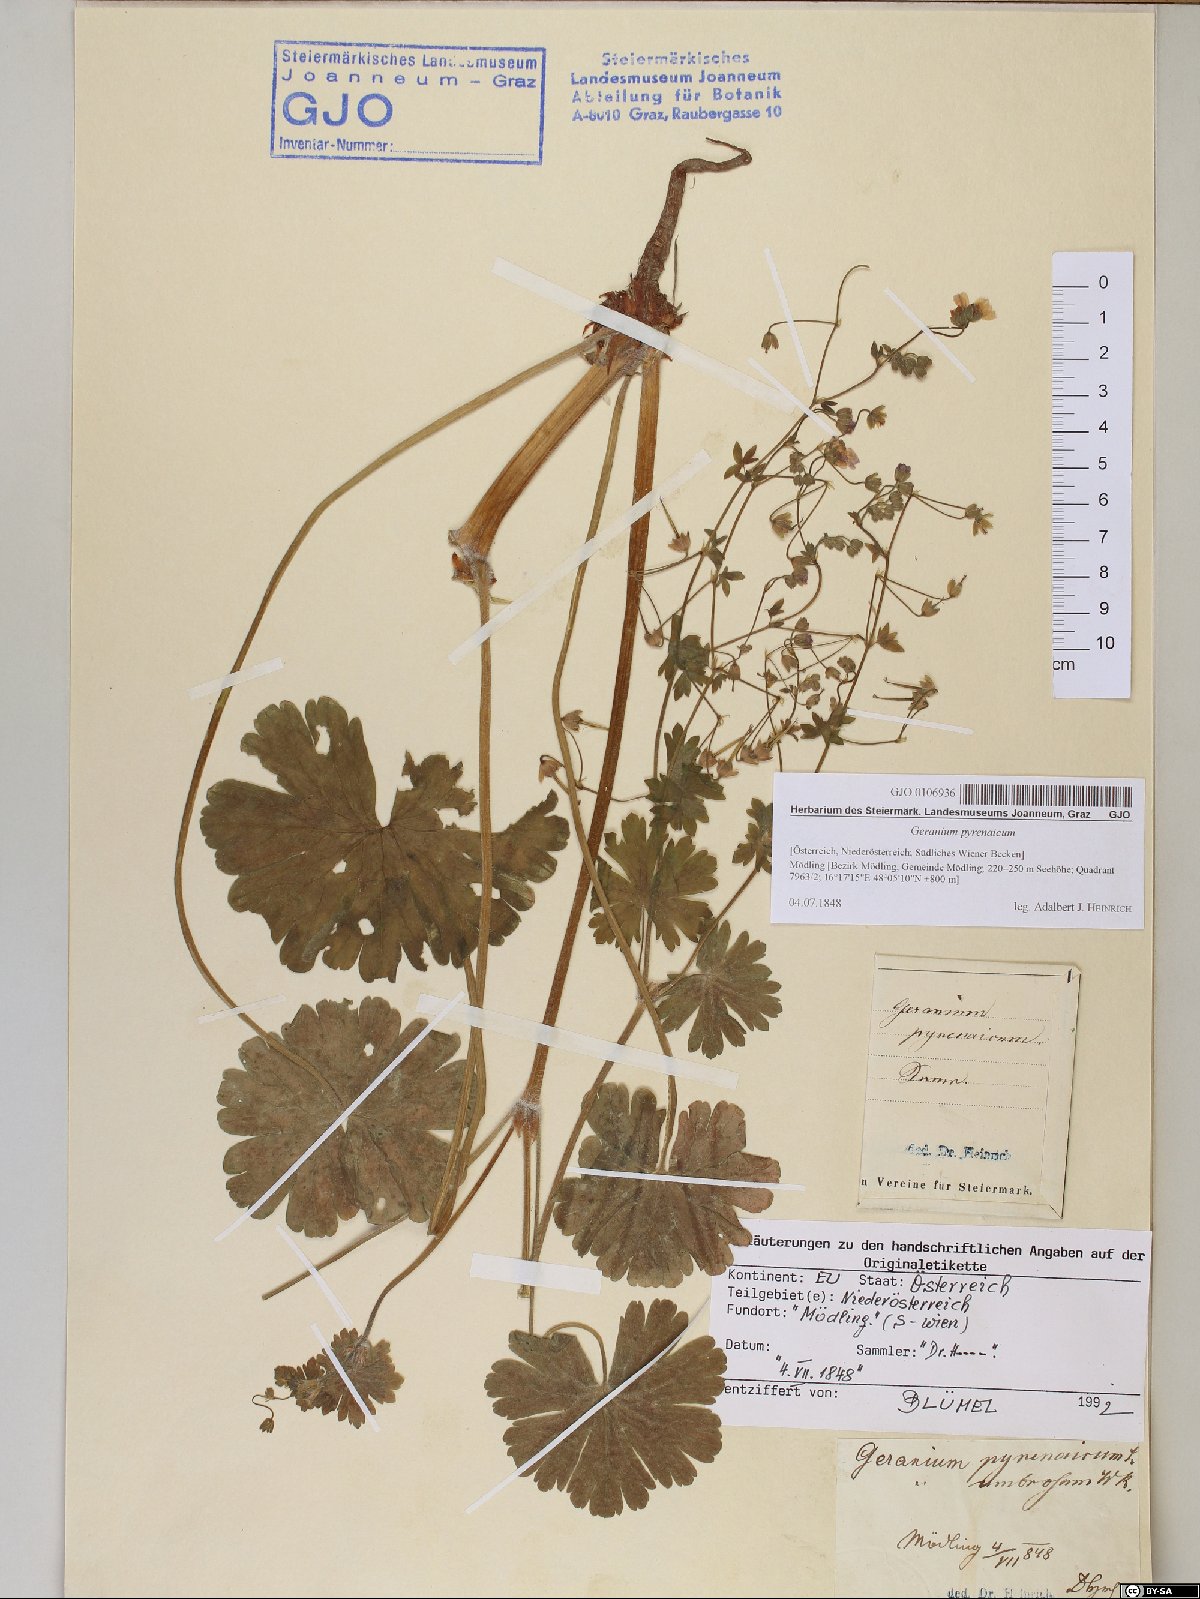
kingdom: Plantae
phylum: Tracheophyta
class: Magnoliopsida
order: Geraniales
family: Geraniaceae
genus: Geranium
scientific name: Geranium pyrenaicum
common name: Hedgerow crane's-bill
